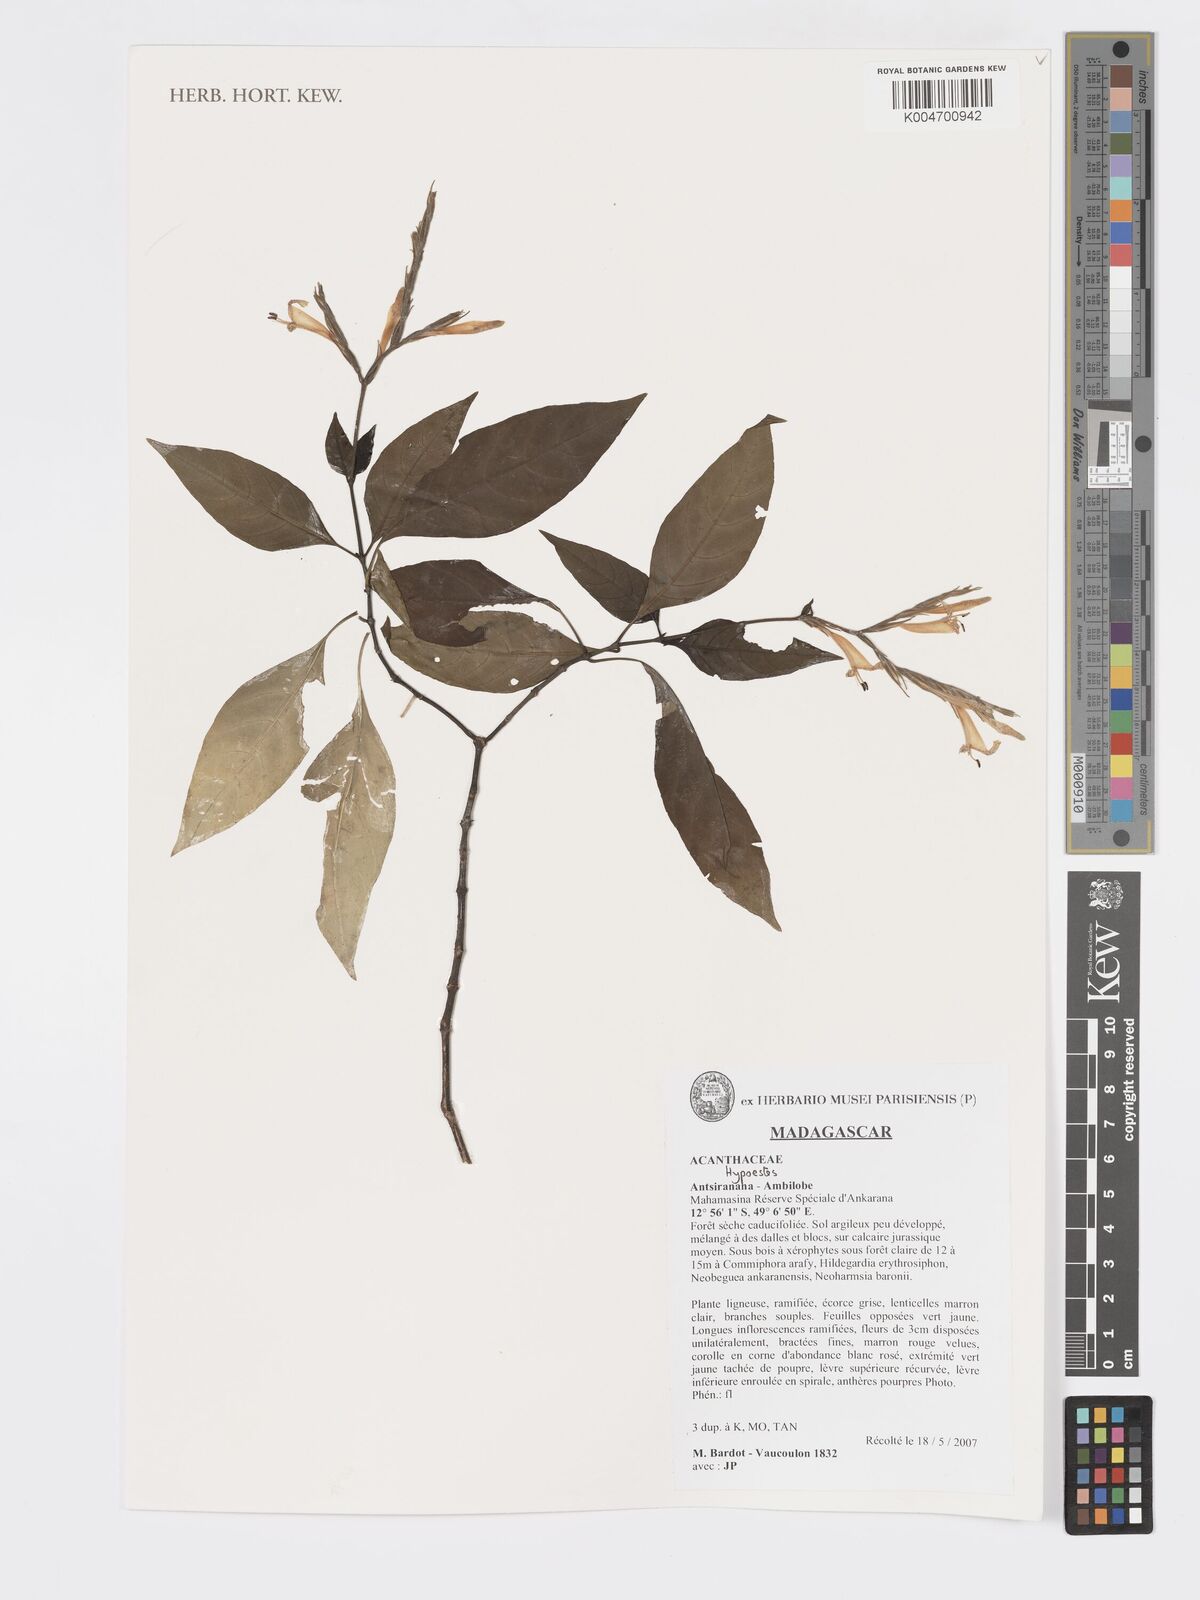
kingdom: Plantae
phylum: Tracheophyta
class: Magnoliopsida
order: Lamiales
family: Acanthaceae
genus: Hypoestes
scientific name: Hypoestes
